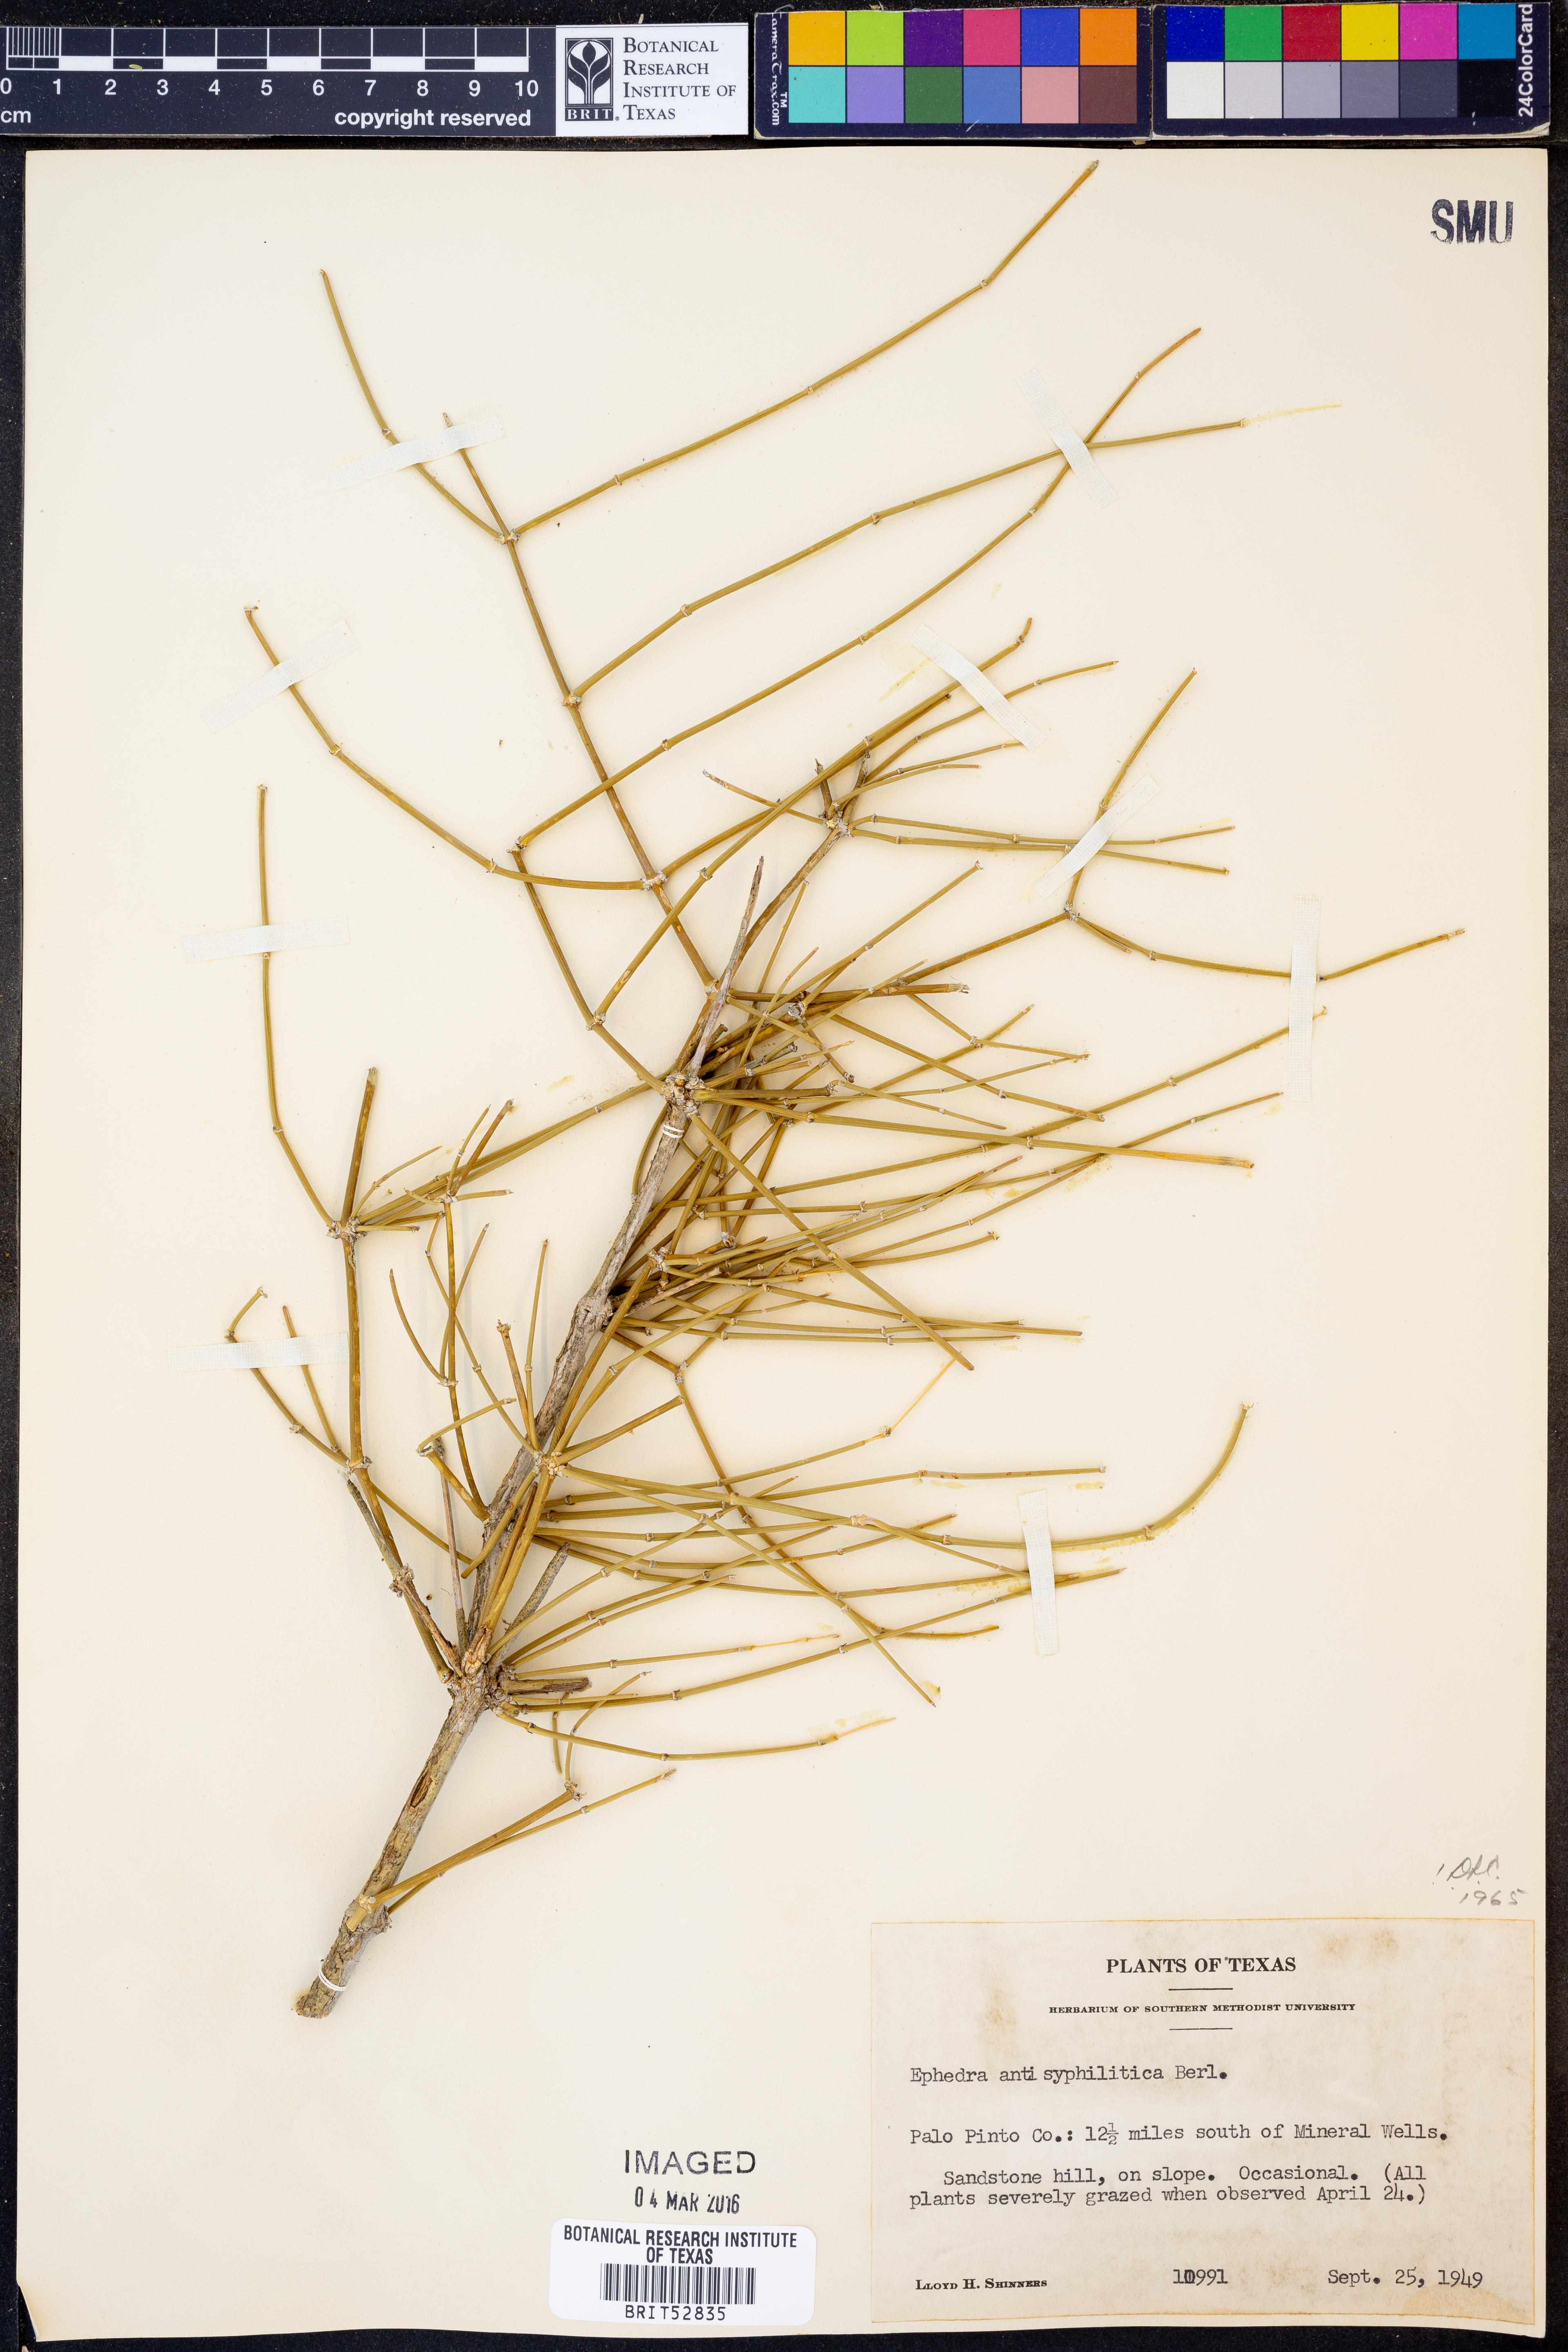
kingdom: Plantae
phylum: Tracheophyta
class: Gnetopsida
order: Ephedrales
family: Ephedraceae
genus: Ephedra
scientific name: Ephedra antisyphilitica
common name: Clipweed
